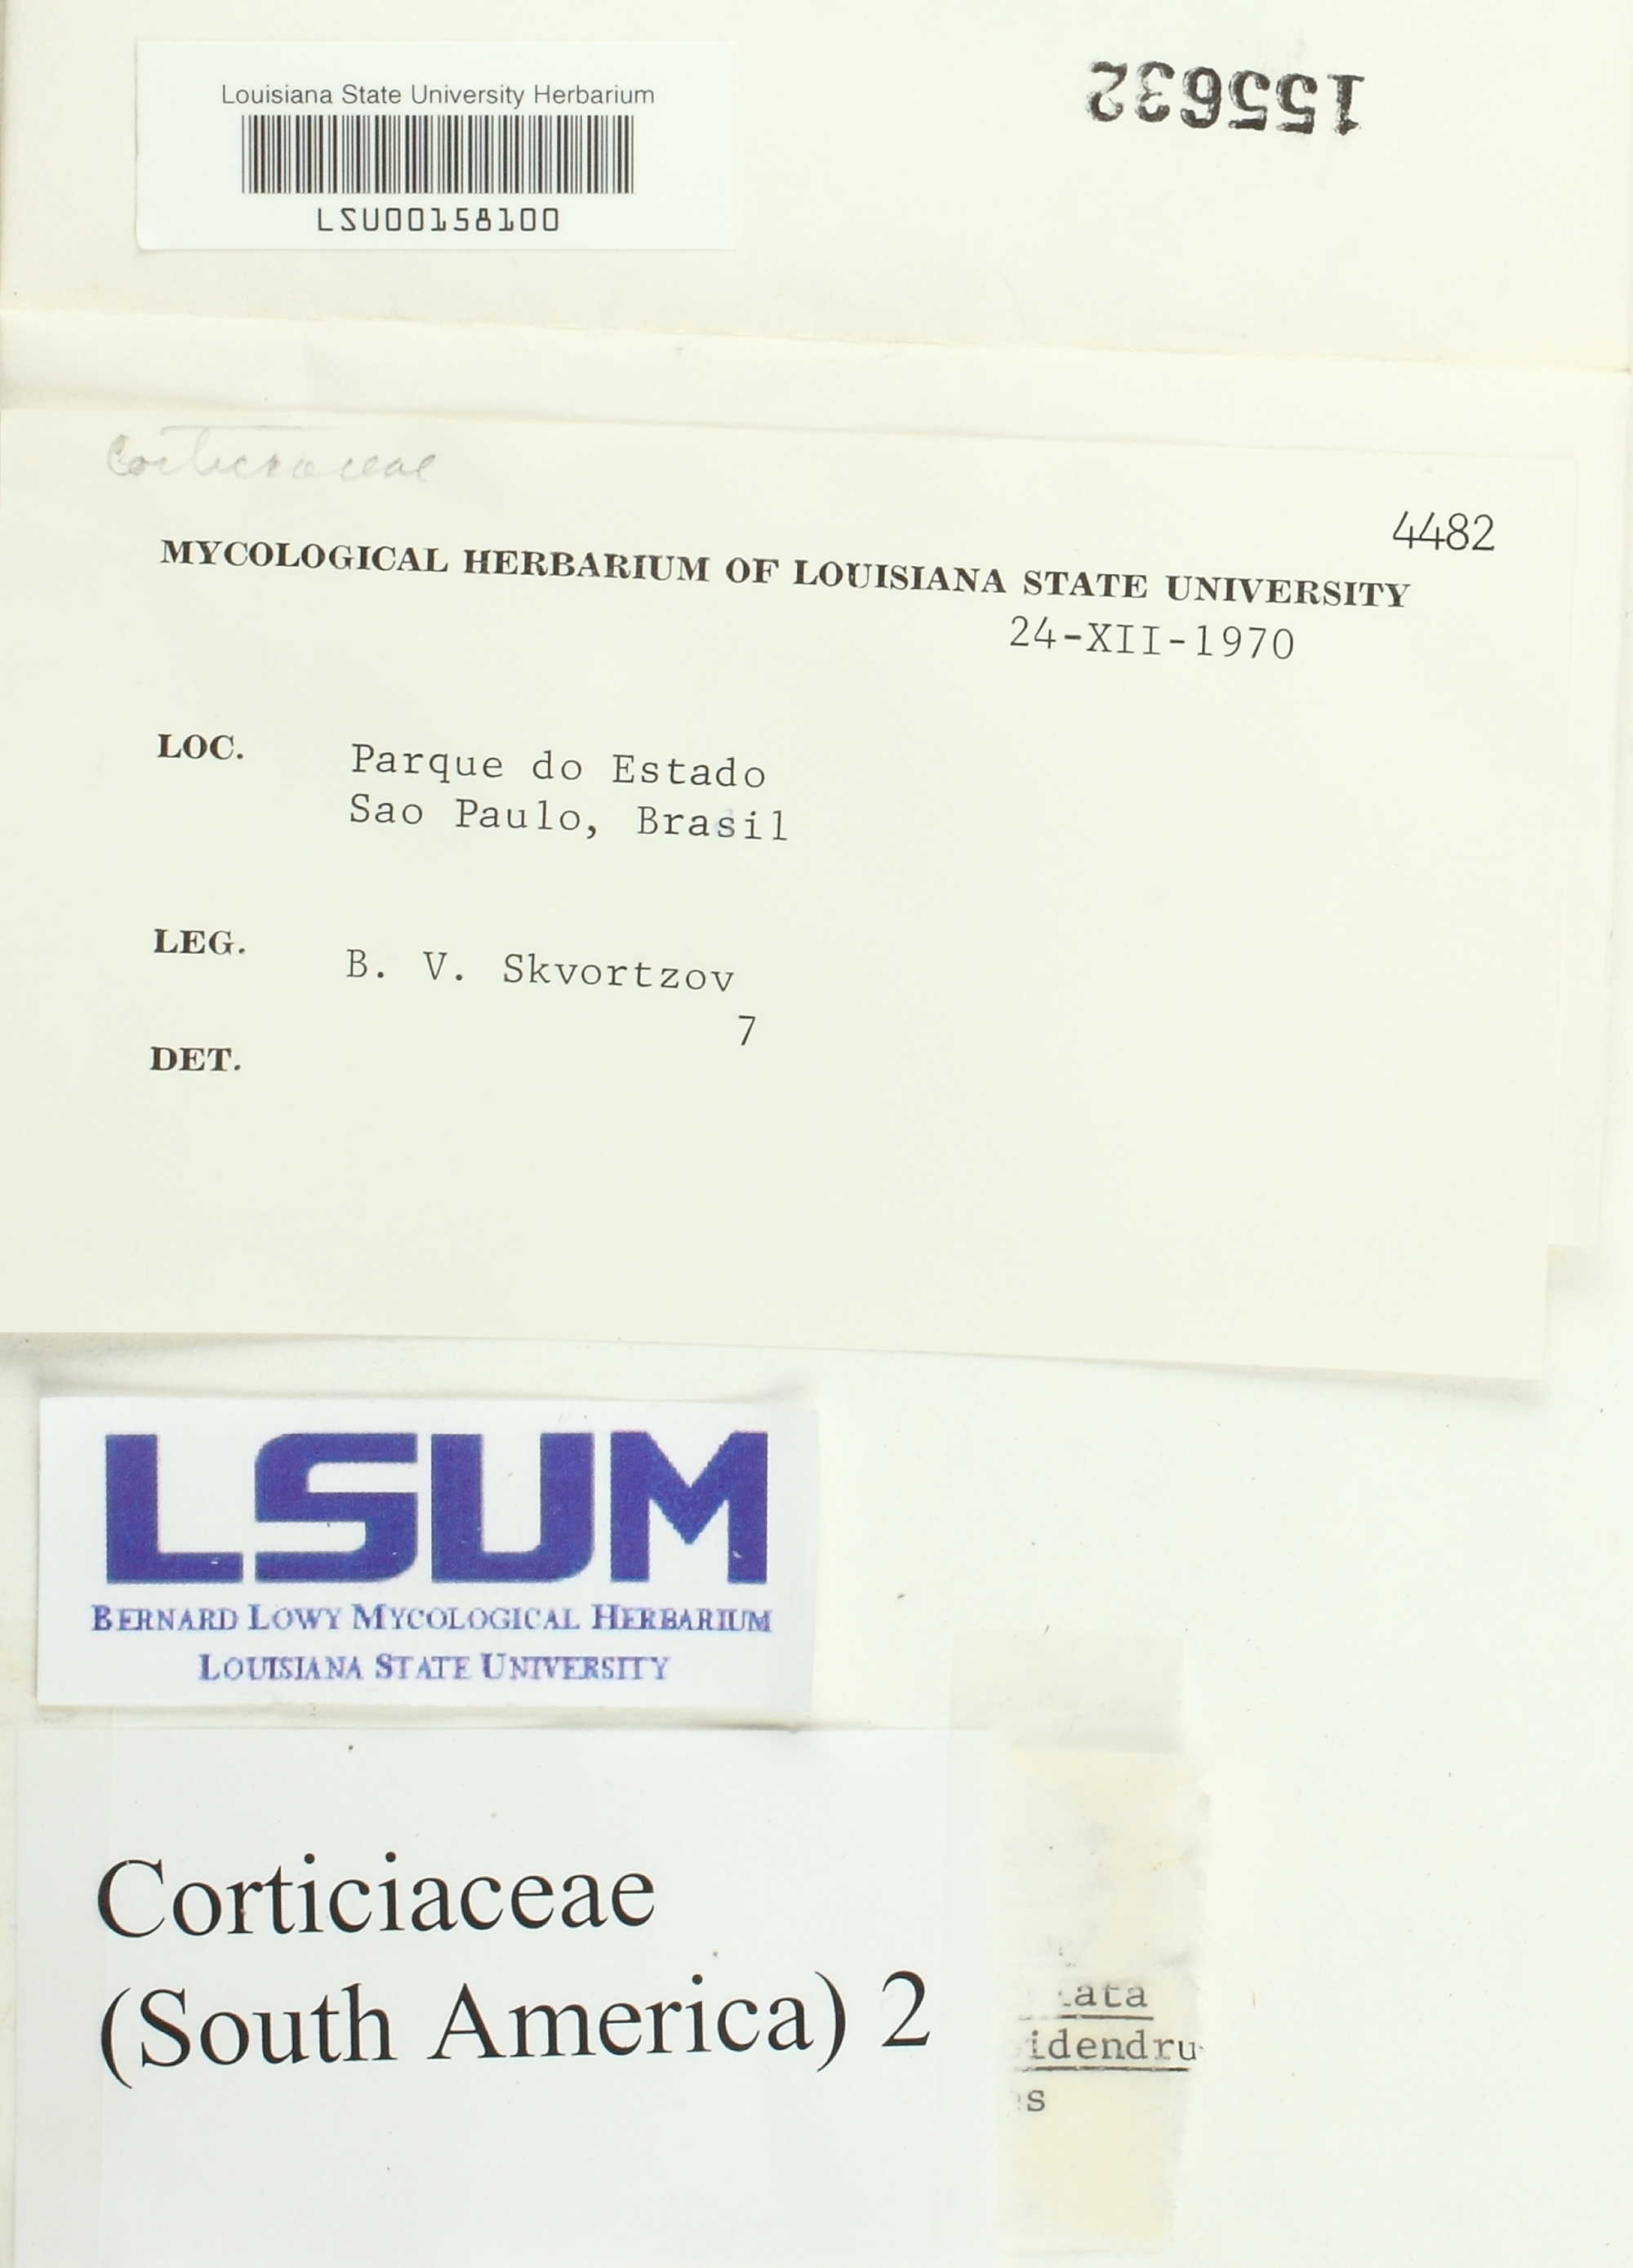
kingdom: Fungi
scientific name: Fungi
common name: Fungi
